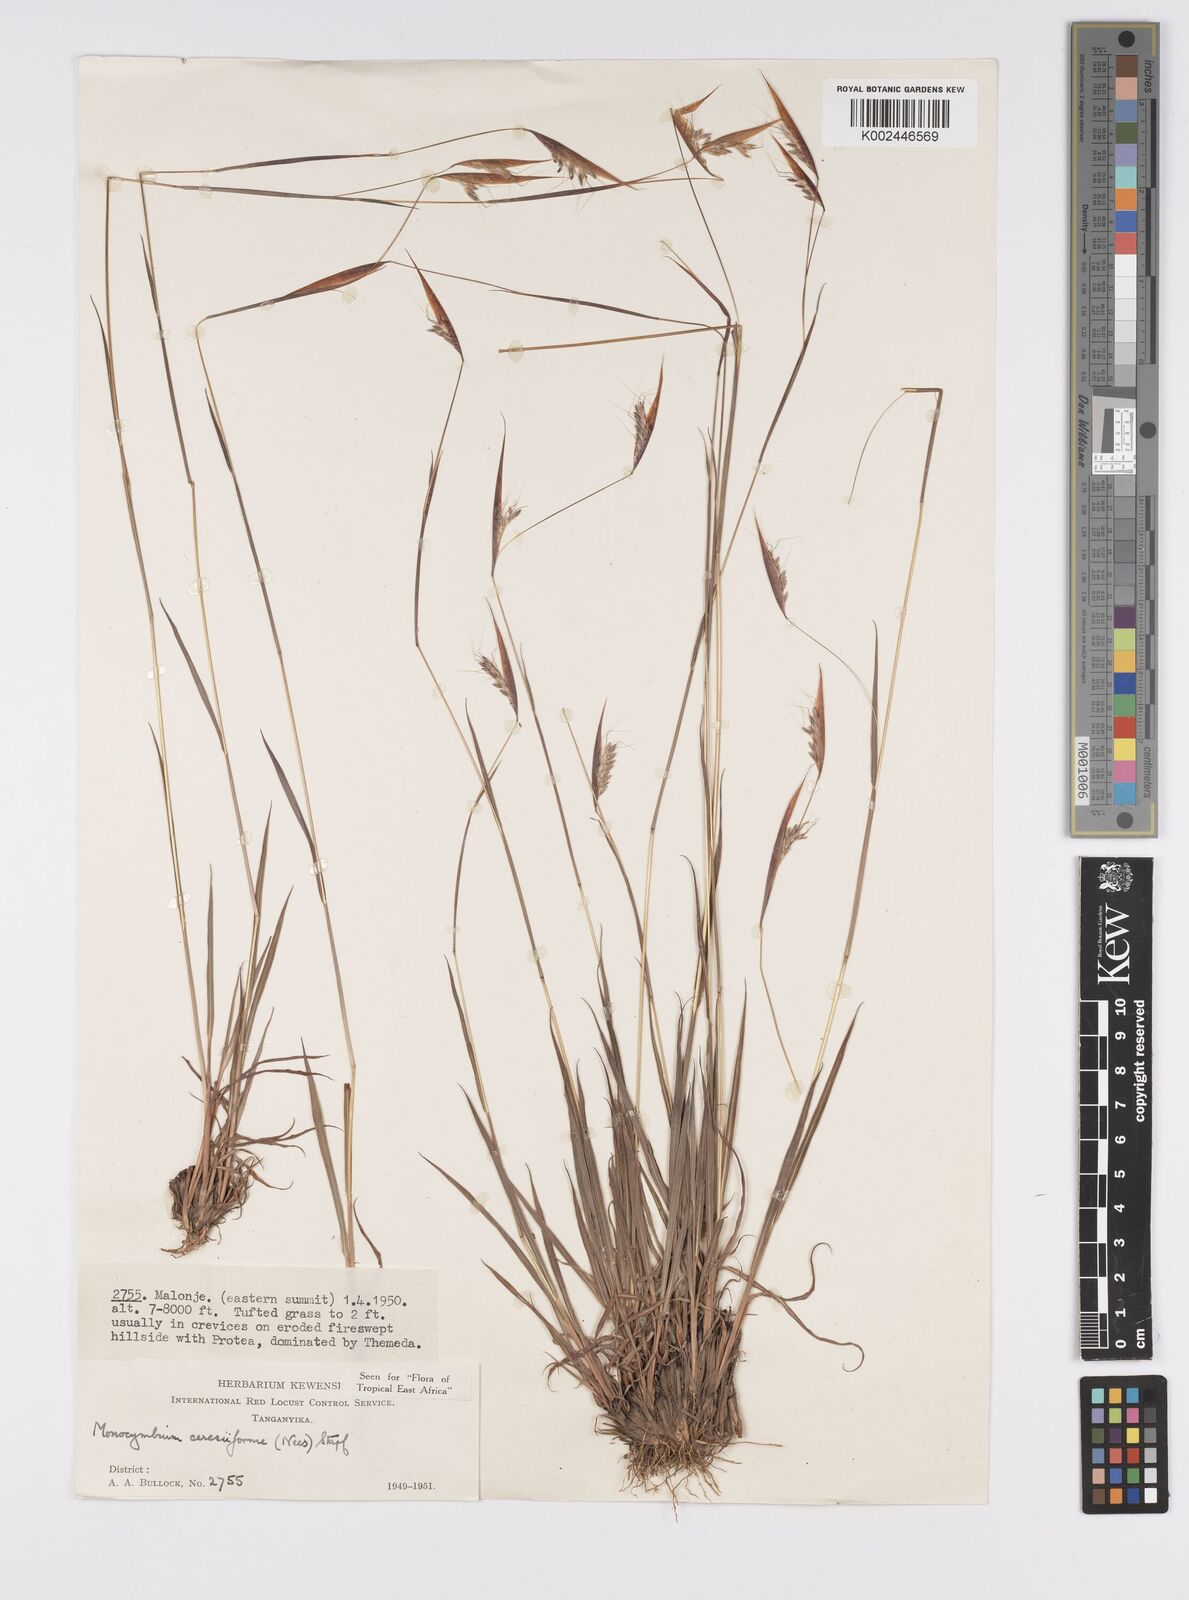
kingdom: Plantae
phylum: Tracheophyta
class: Liliopsida
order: Poales
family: Poaceae
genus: Monocymbium
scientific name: Monocymbium ceresiiforme
